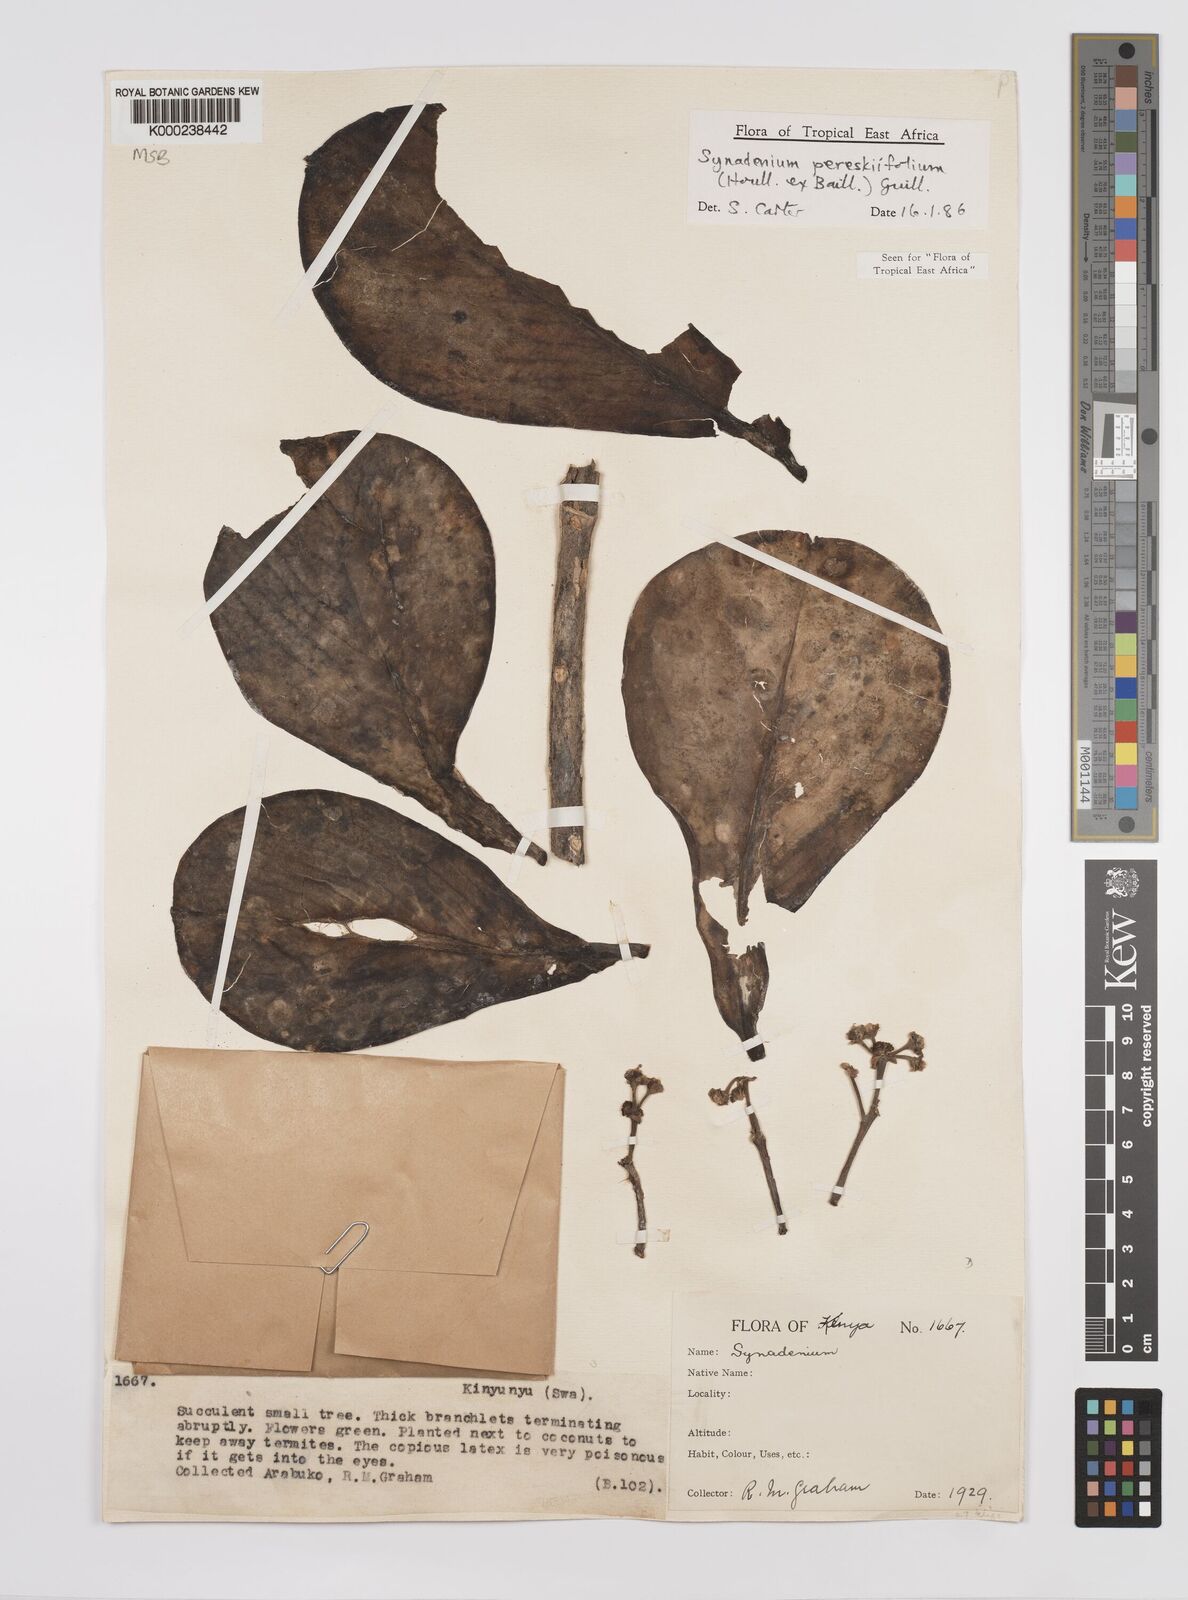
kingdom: Plantae
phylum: Tracheophyta
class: Magnoliopsida
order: Malpighiales
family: Euphorbiaceae
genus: Euphorbia
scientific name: Euphorbia pereskiifolia
